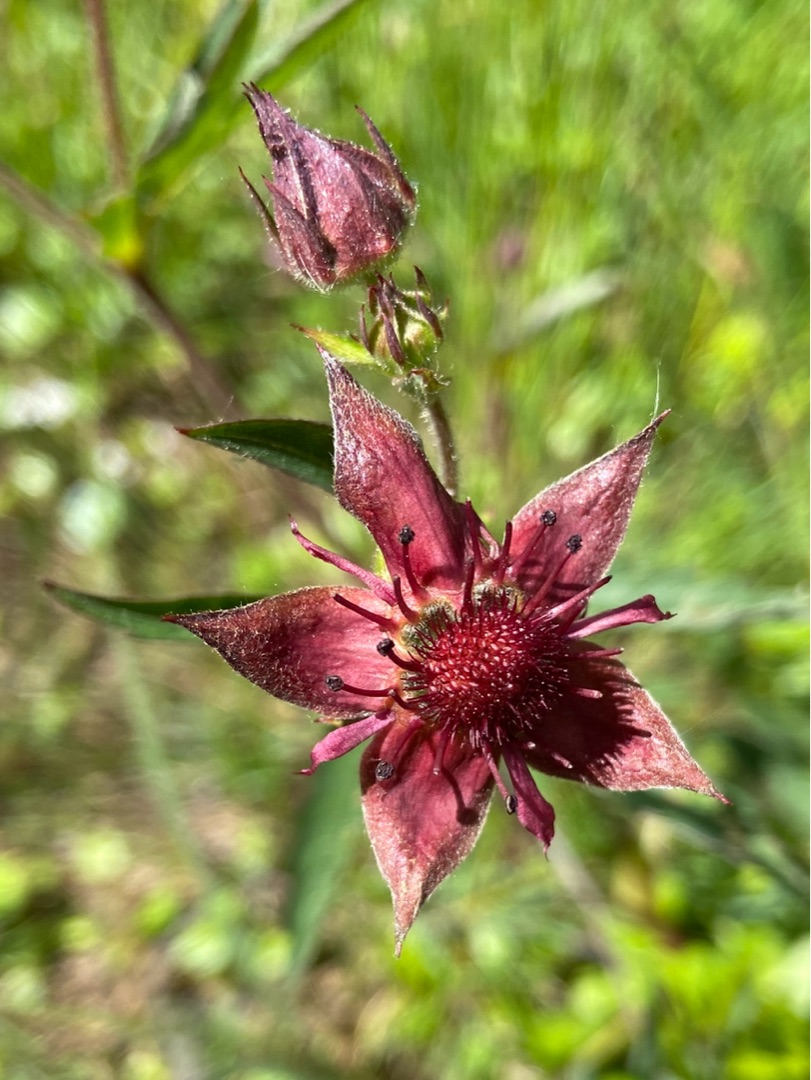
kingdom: Plantae
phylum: Tracheophyta
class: Magnoliopsida
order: Rosales
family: Rosaceae
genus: Comarum
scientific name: Comarum palustre
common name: Kragefod
